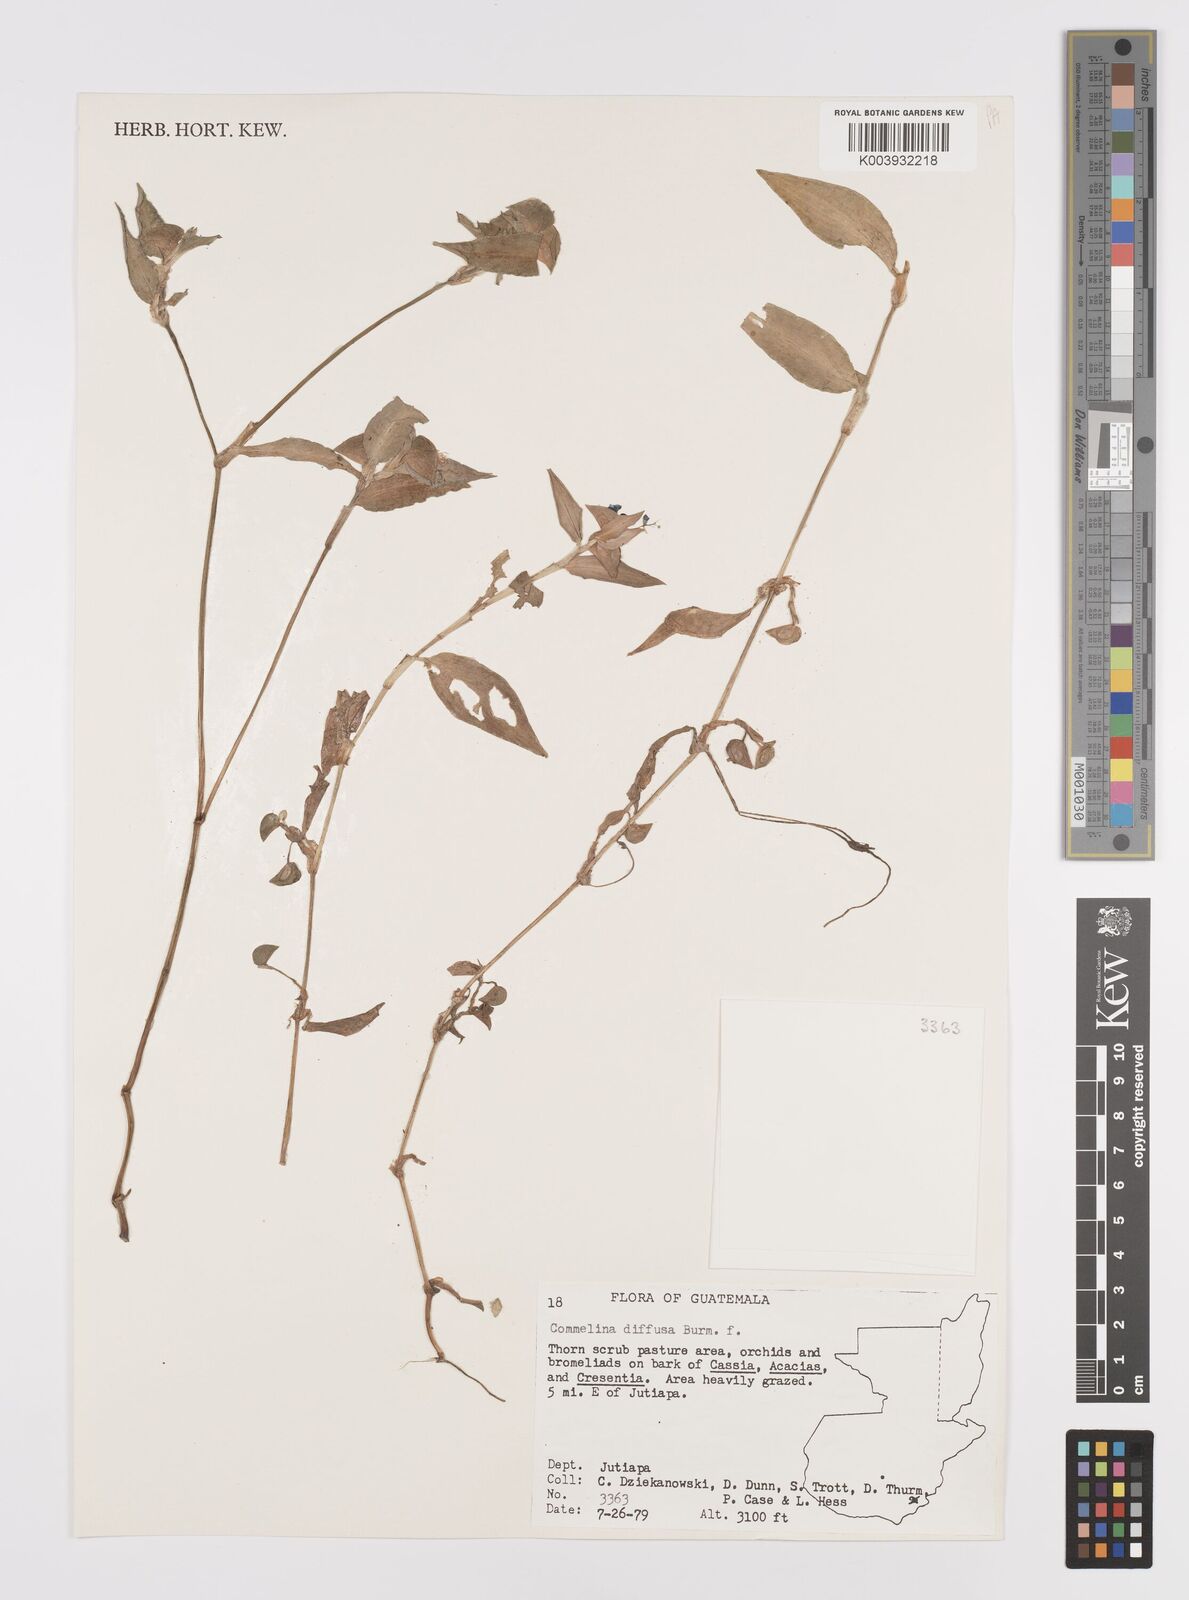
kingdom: Plantae
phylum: Tracheophyta
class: Liliopsida
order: Commelinales
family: Commelinaceae
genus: Commelina
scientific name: Commelina diffusa
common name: Climbing dayflower
